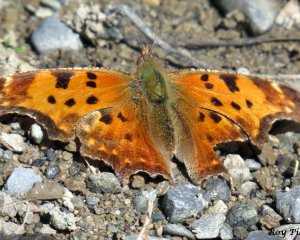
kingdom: Animalia
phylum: Arthropoda
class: Insecta
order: Lepidoptera
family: Nymphalidae
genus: Polygonia
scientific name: Polygonia comma
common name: Eastern Comma
